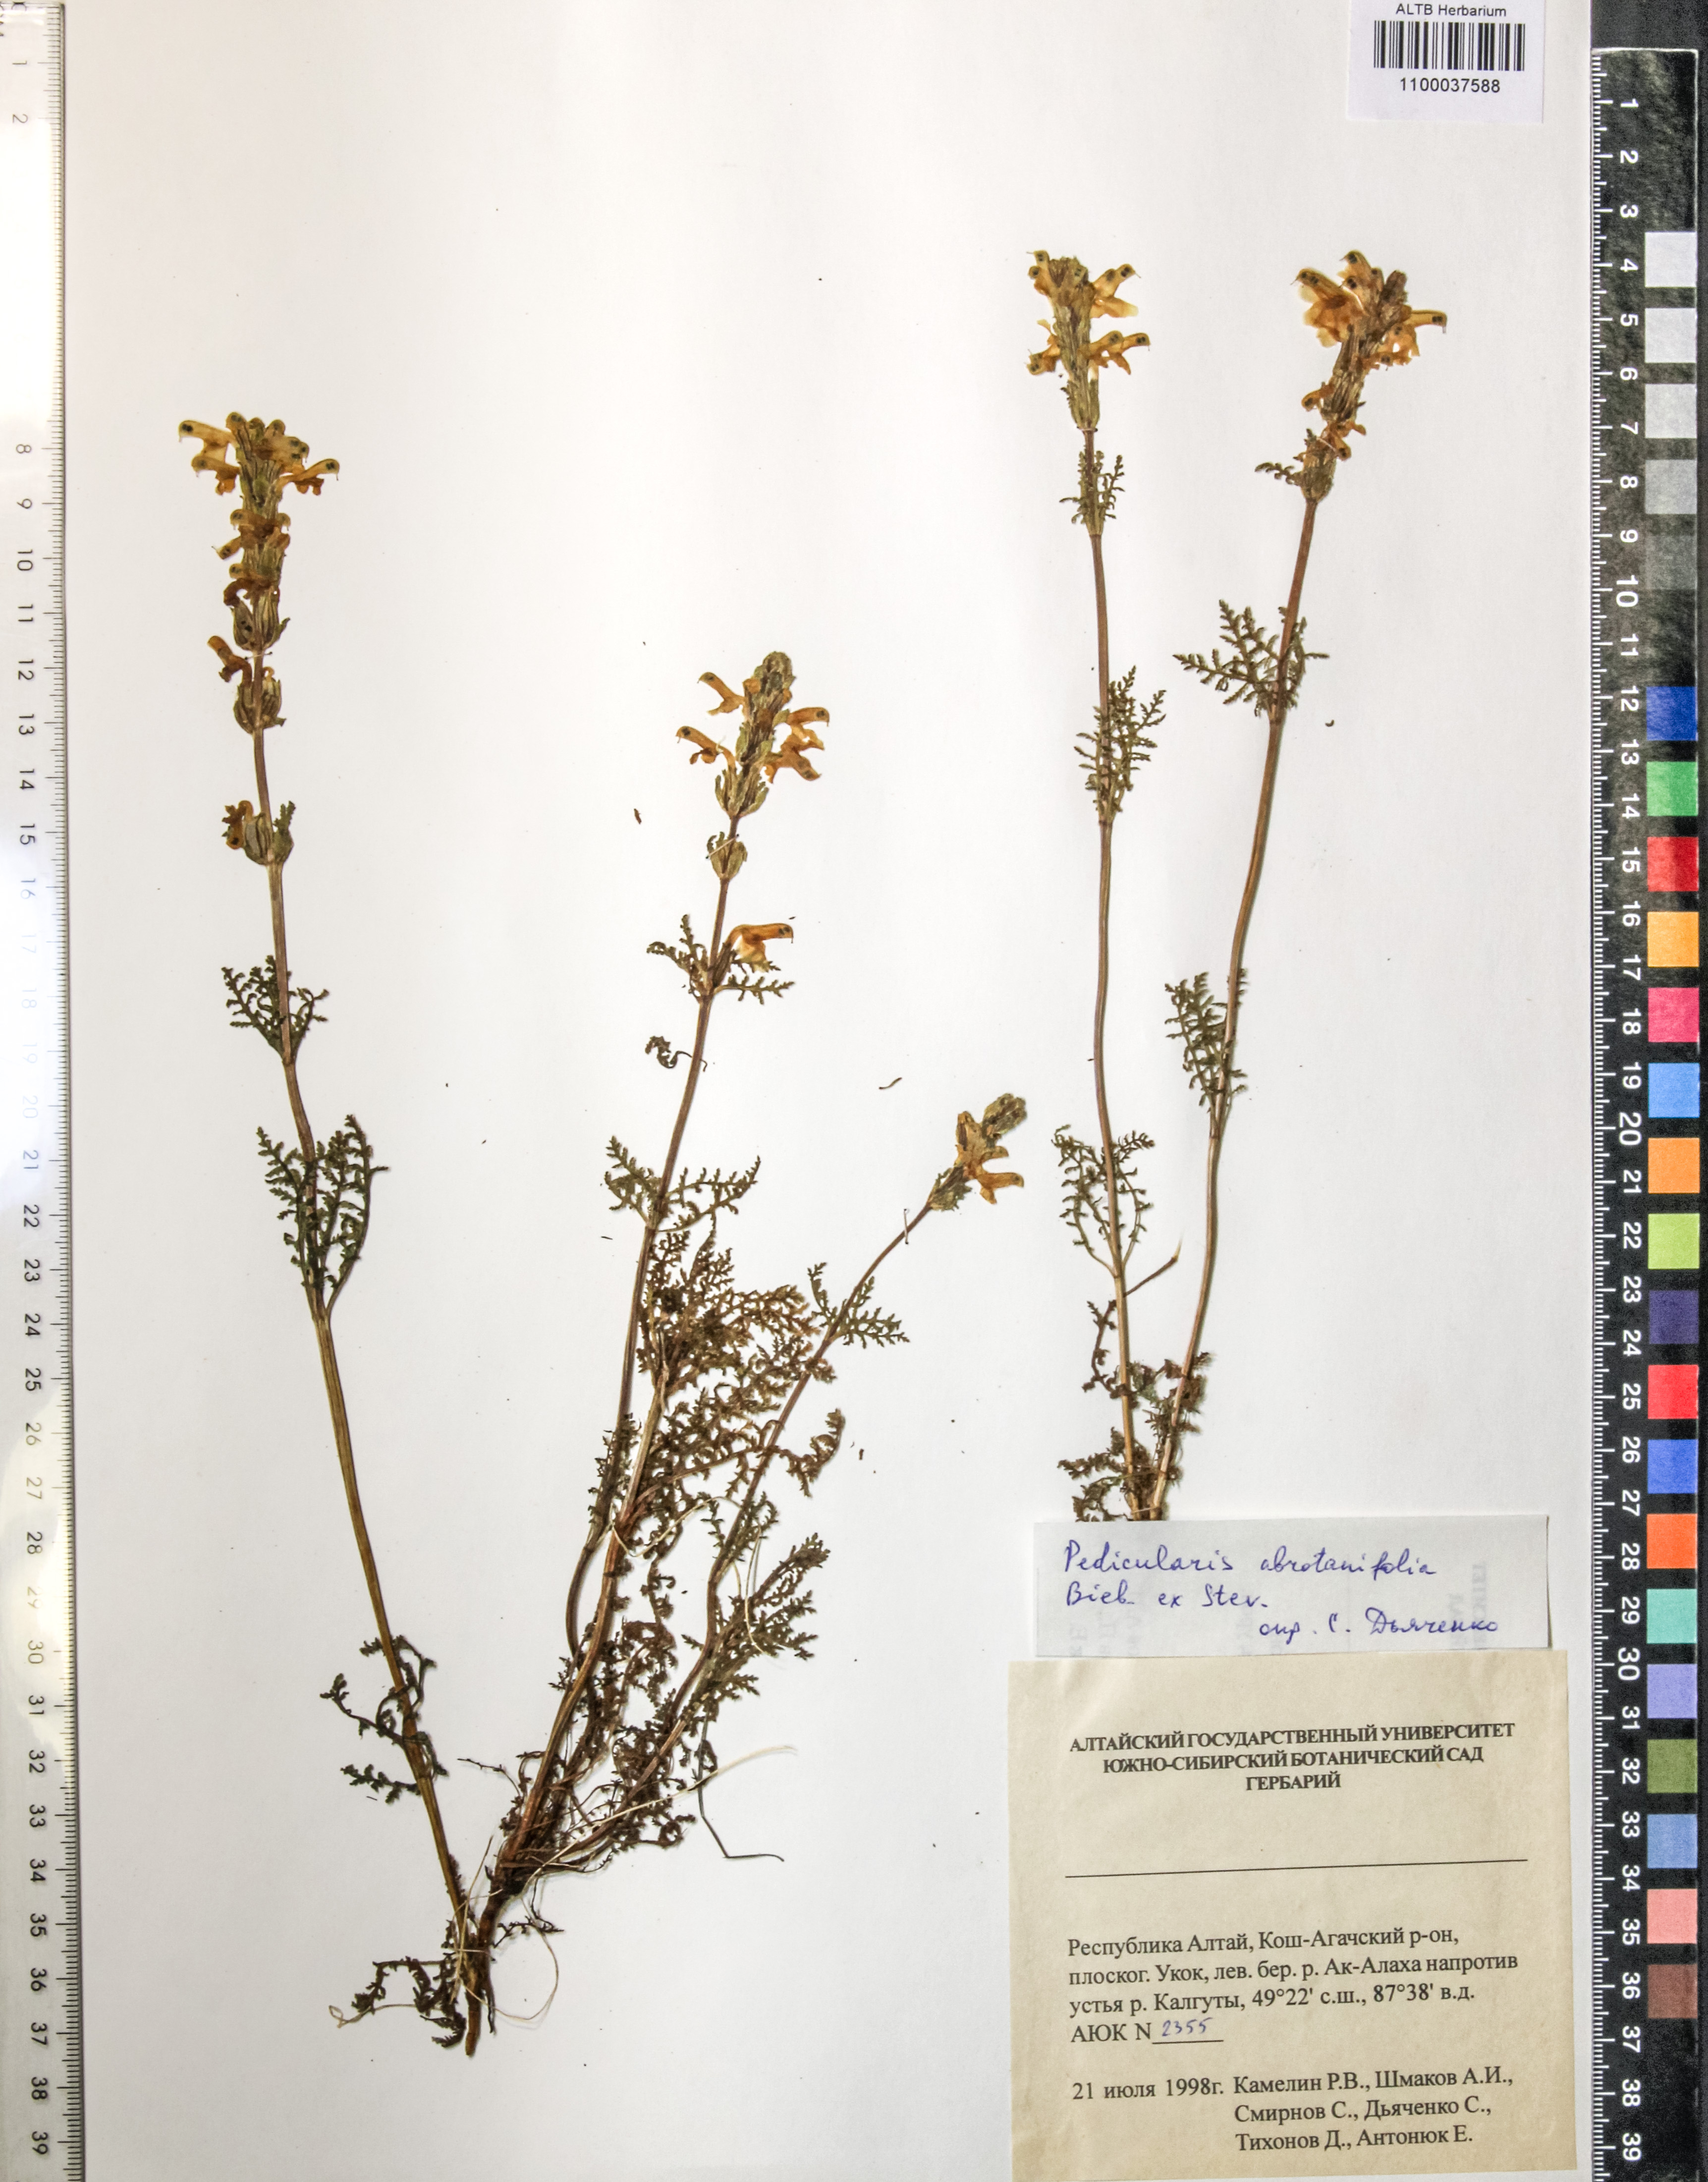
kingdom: Plantae
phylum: Tracheophyta
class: Magnoliopsida
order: Lamiales
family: Orobanchaceae
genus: Pedicularis
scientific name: Pedicularis abrotanifolia
